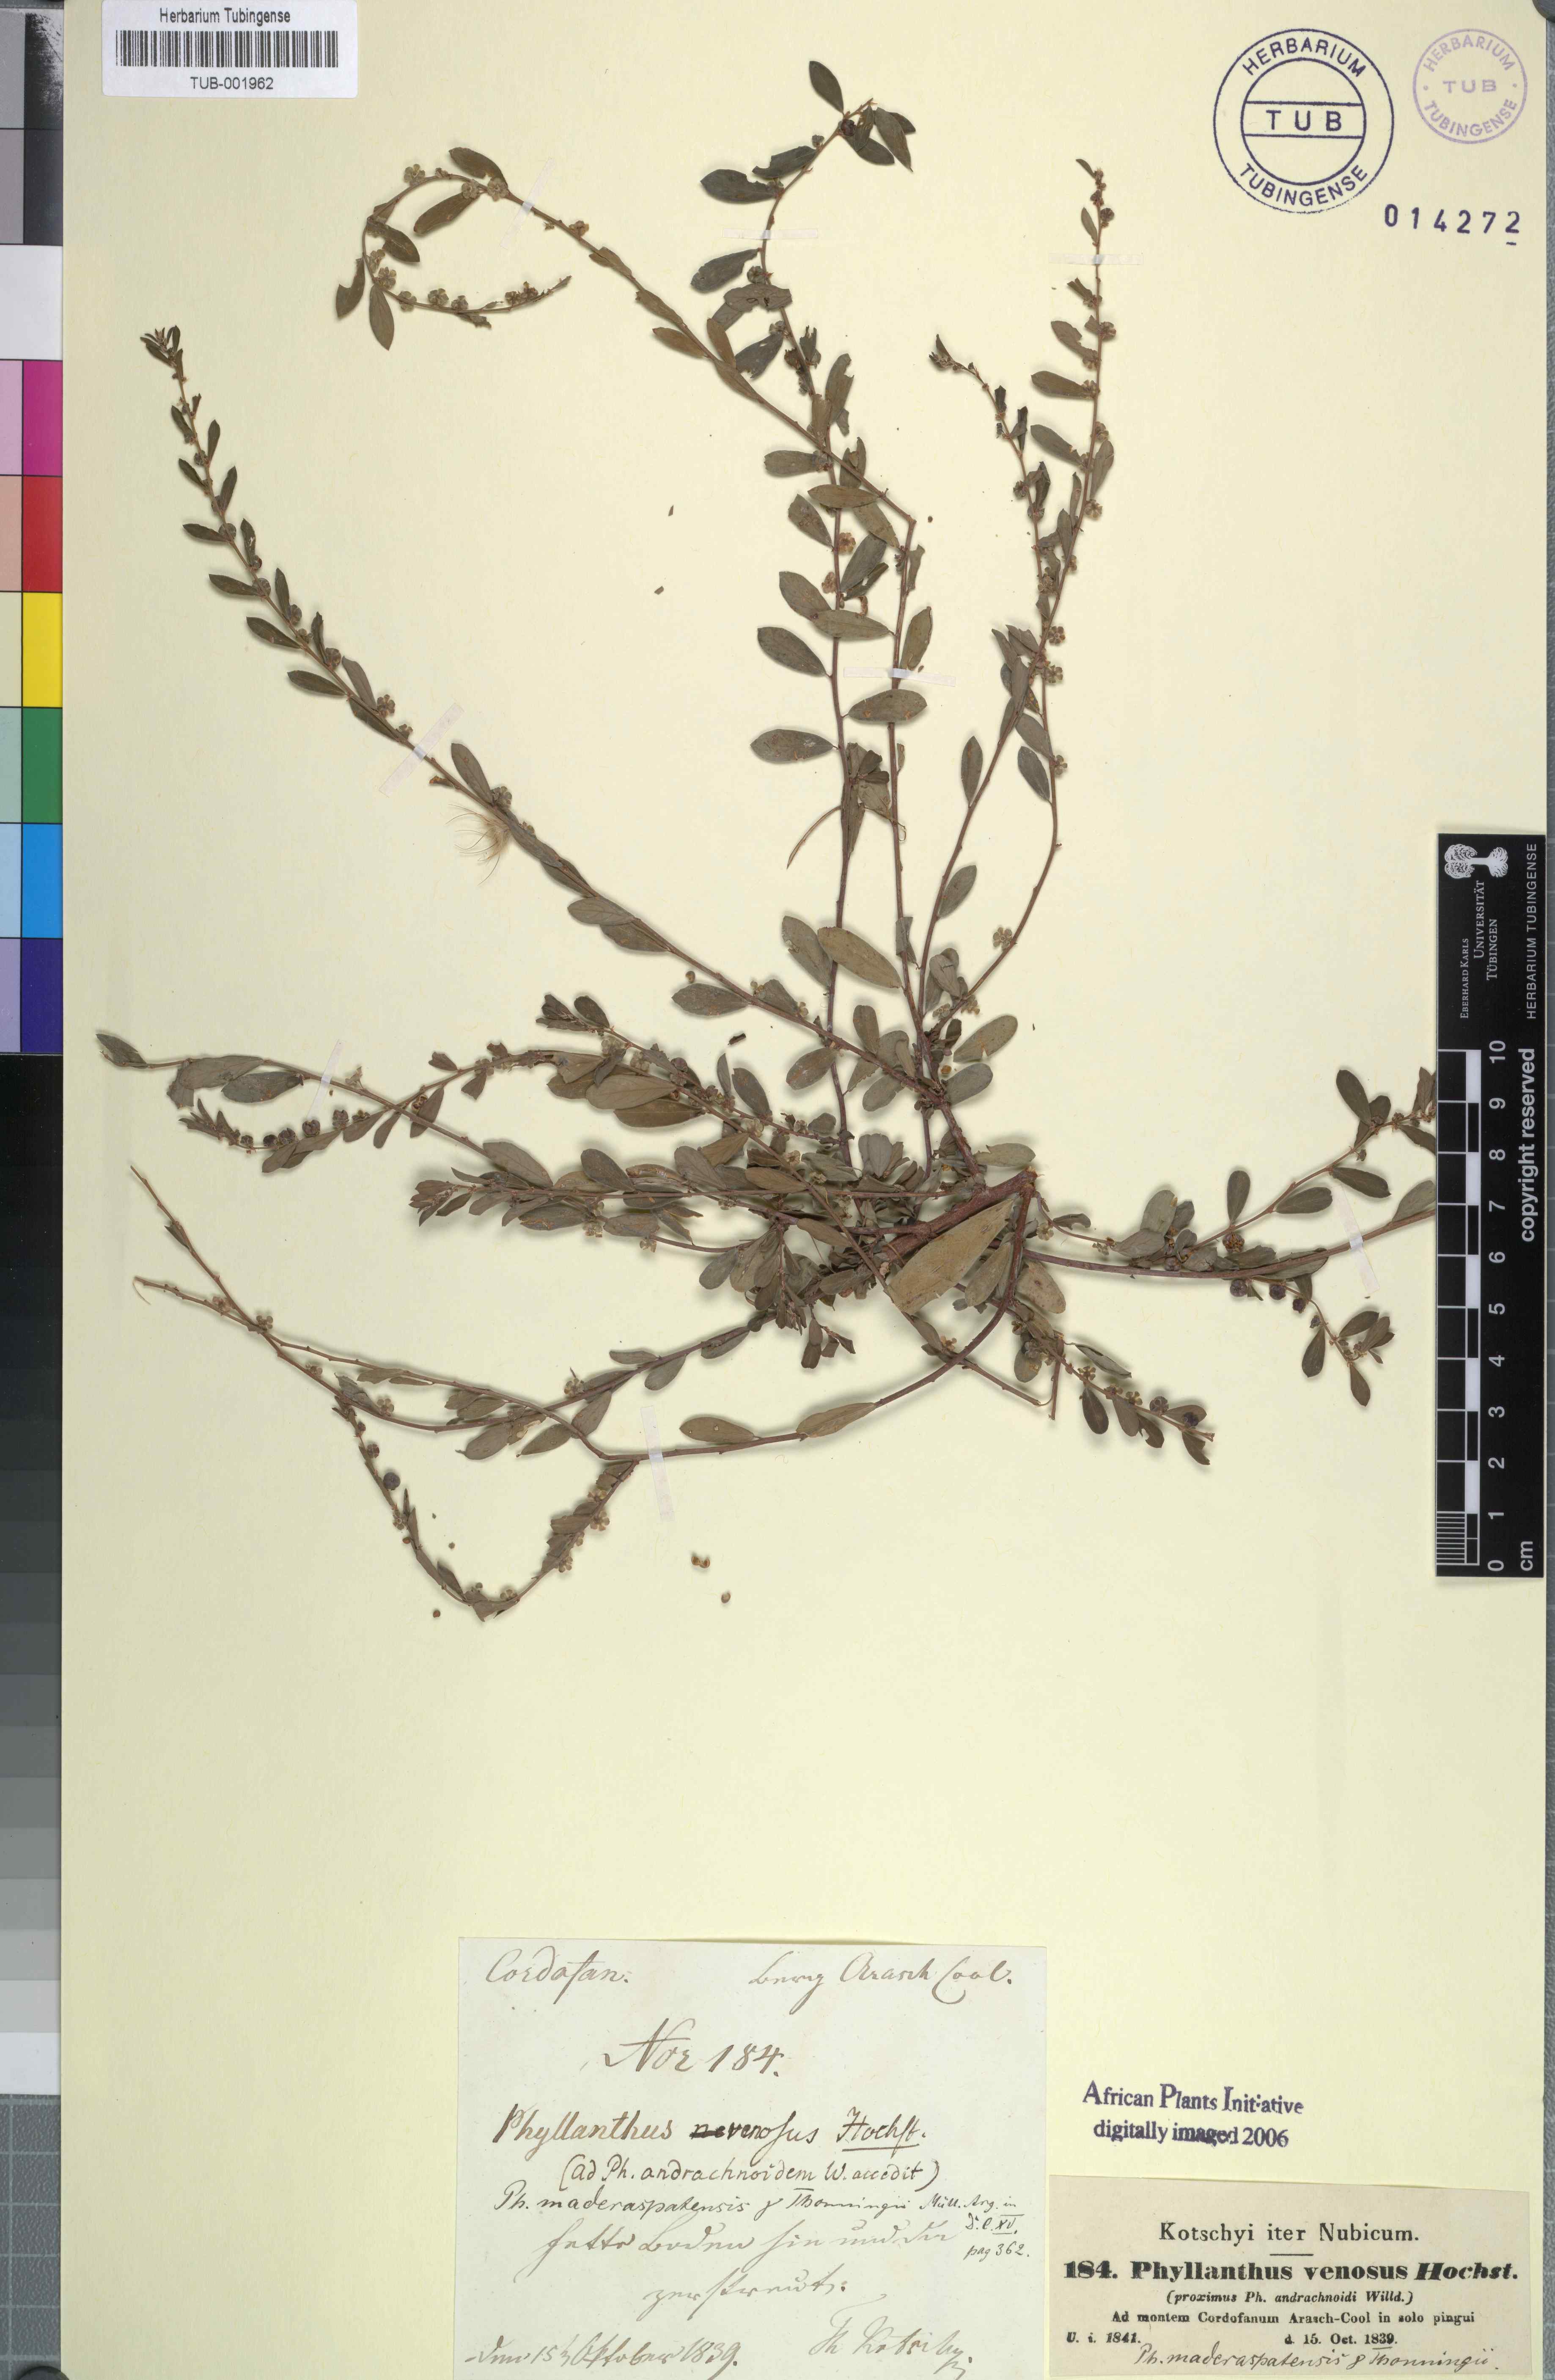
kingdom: Plantae
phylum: Tracheophyta
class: Magnoliopsida
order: Malpighiales
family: Phyllanthaceae
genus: Phyllanthus
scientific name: Phyllanthus maderaspatensis
